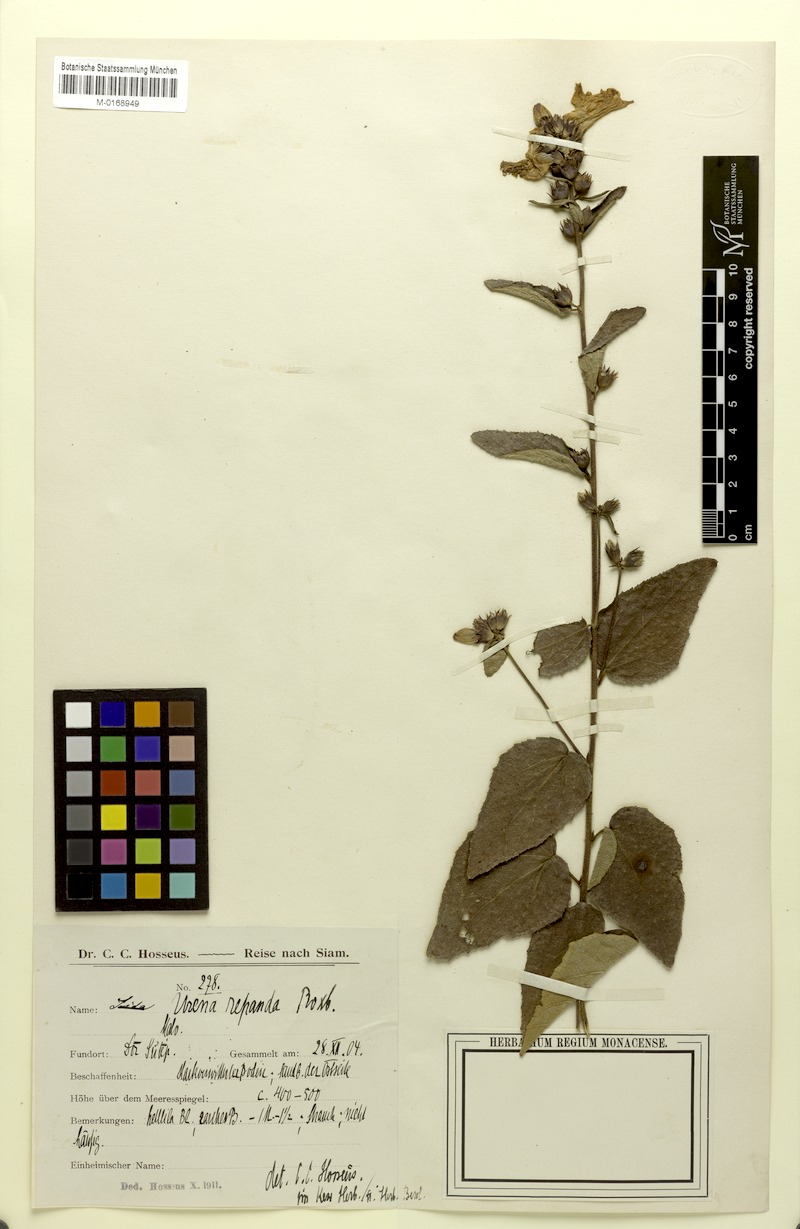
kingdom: Plantae
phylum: Tracheophyta
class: Magnoliopsida
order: Malvales
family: Malvaceae
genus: Urena
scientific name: Urena repanda
